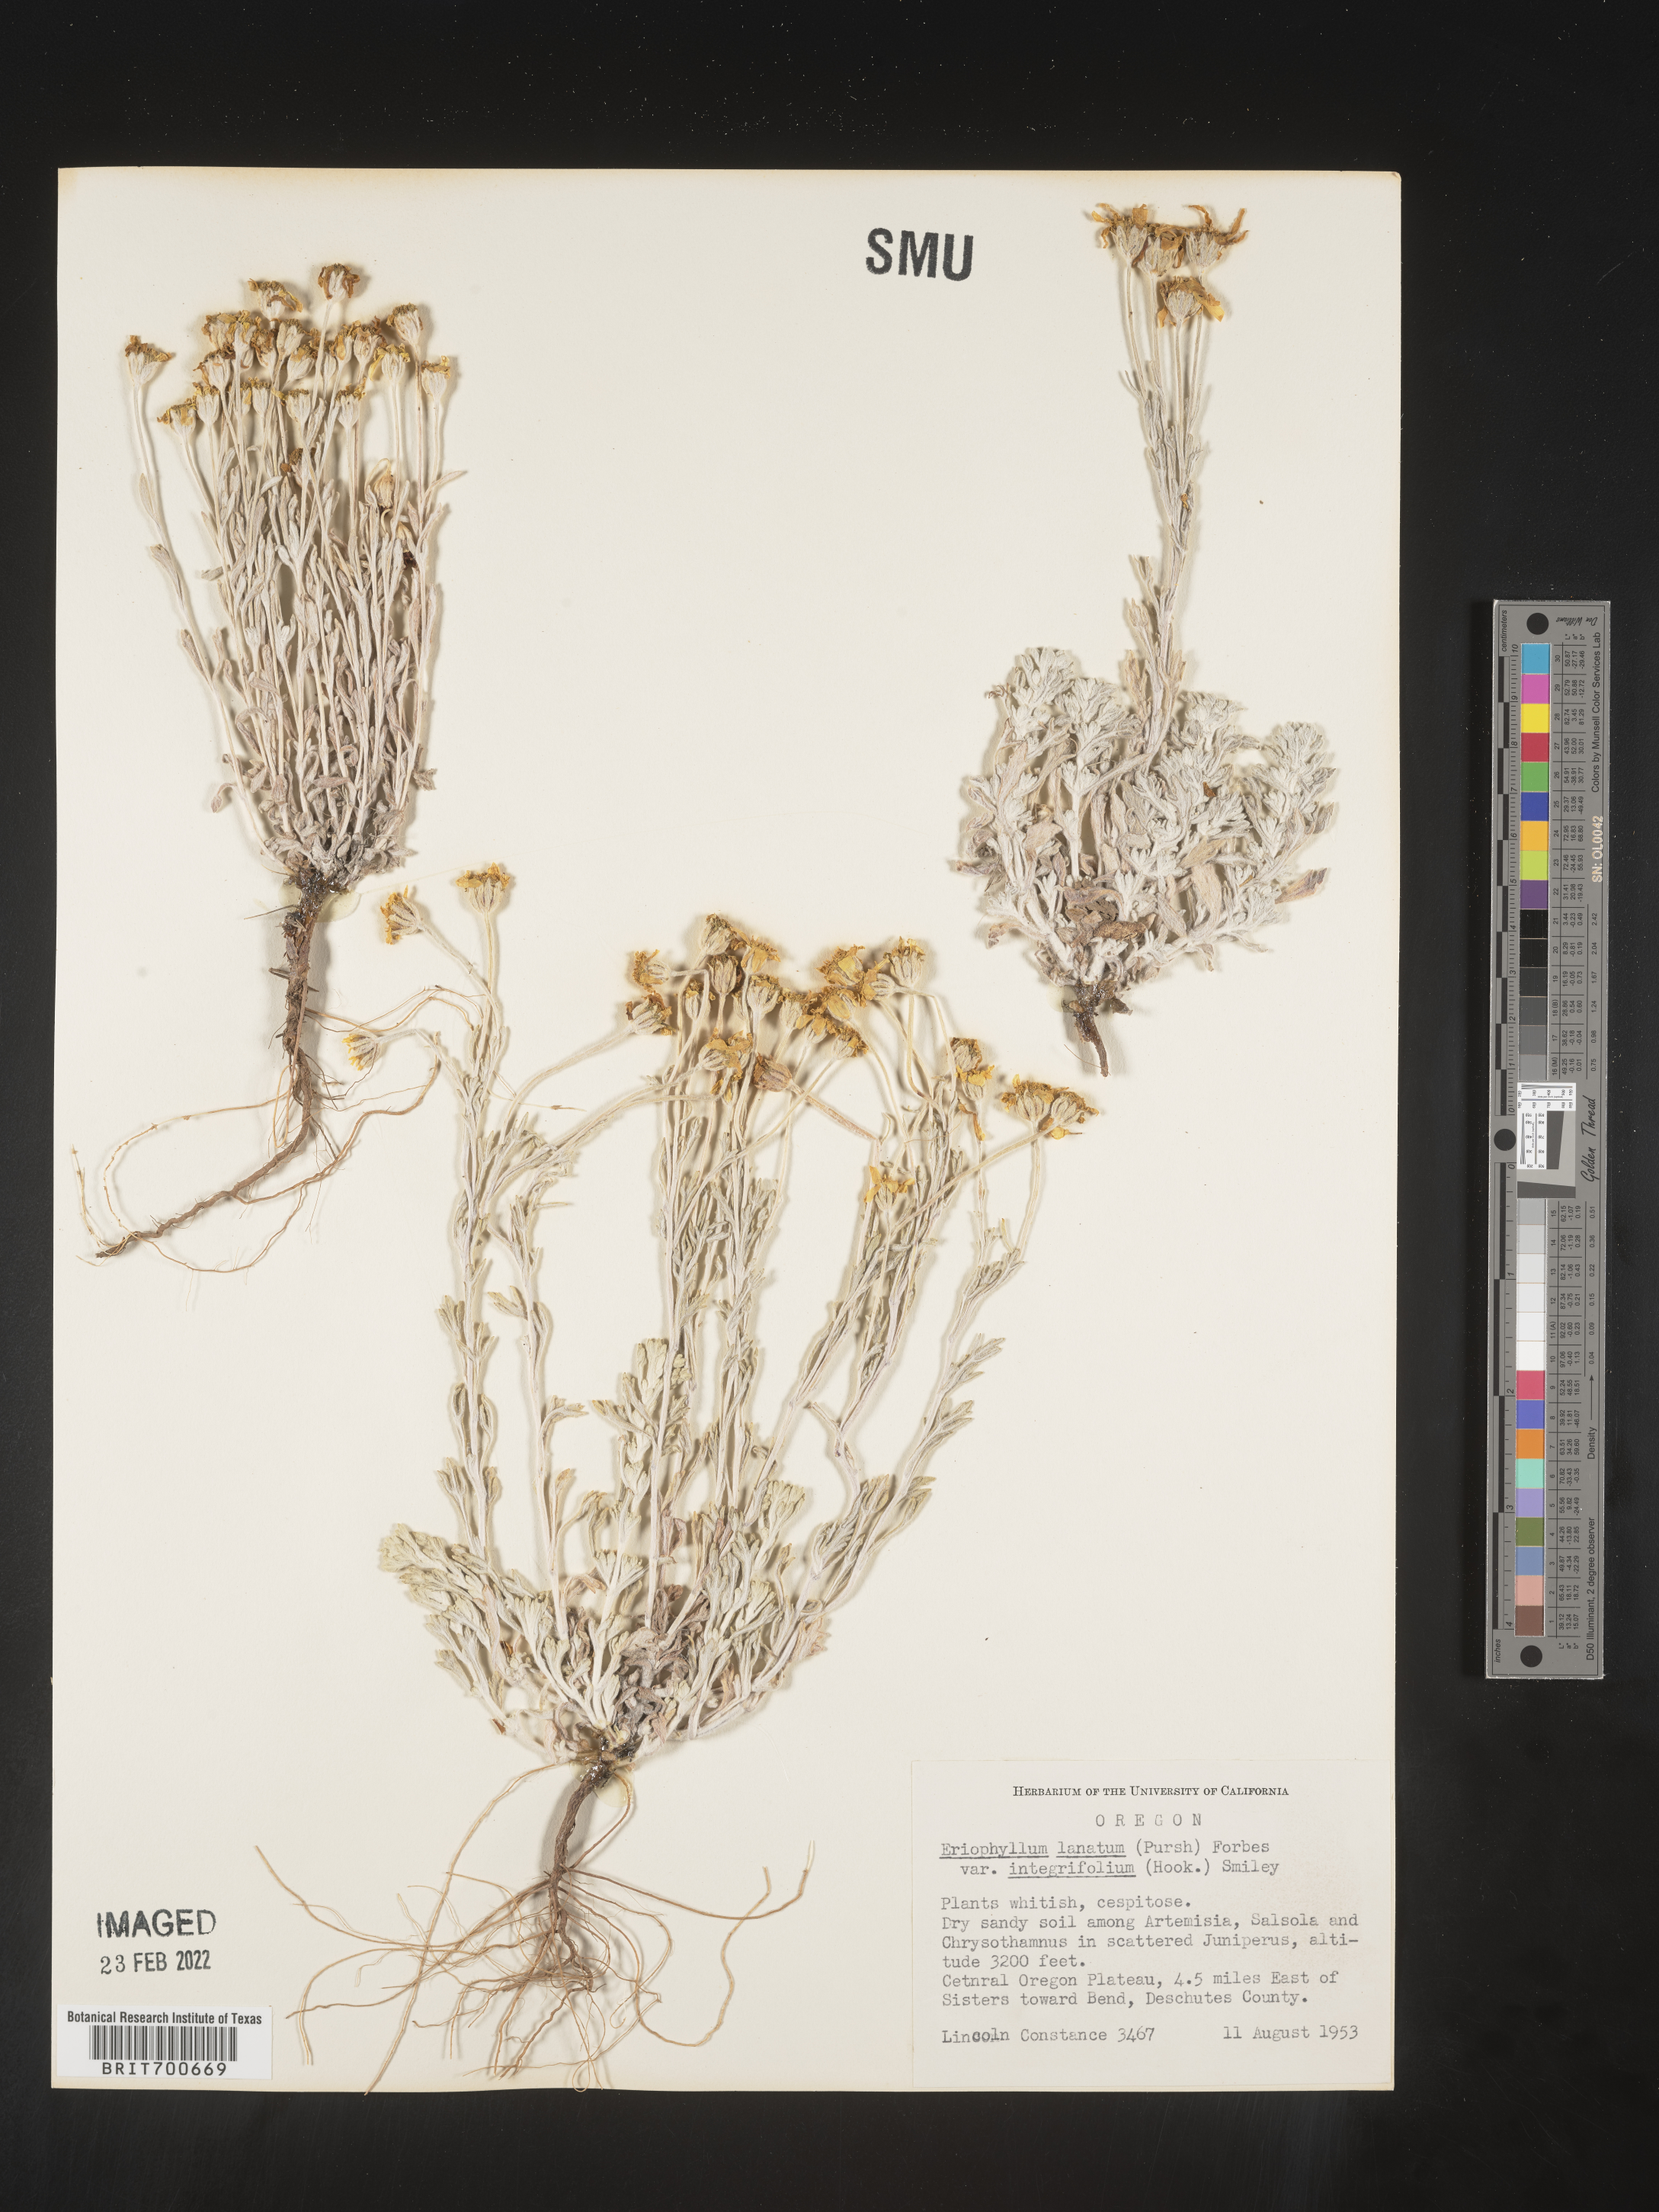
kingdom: Plantae
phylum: Tracheophyta
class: Magnoliopsida
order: Asterales
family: Asteraceae
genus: Eriophyllum
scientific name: Eriophyllum lanatum
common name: Common woolly-sunflower
